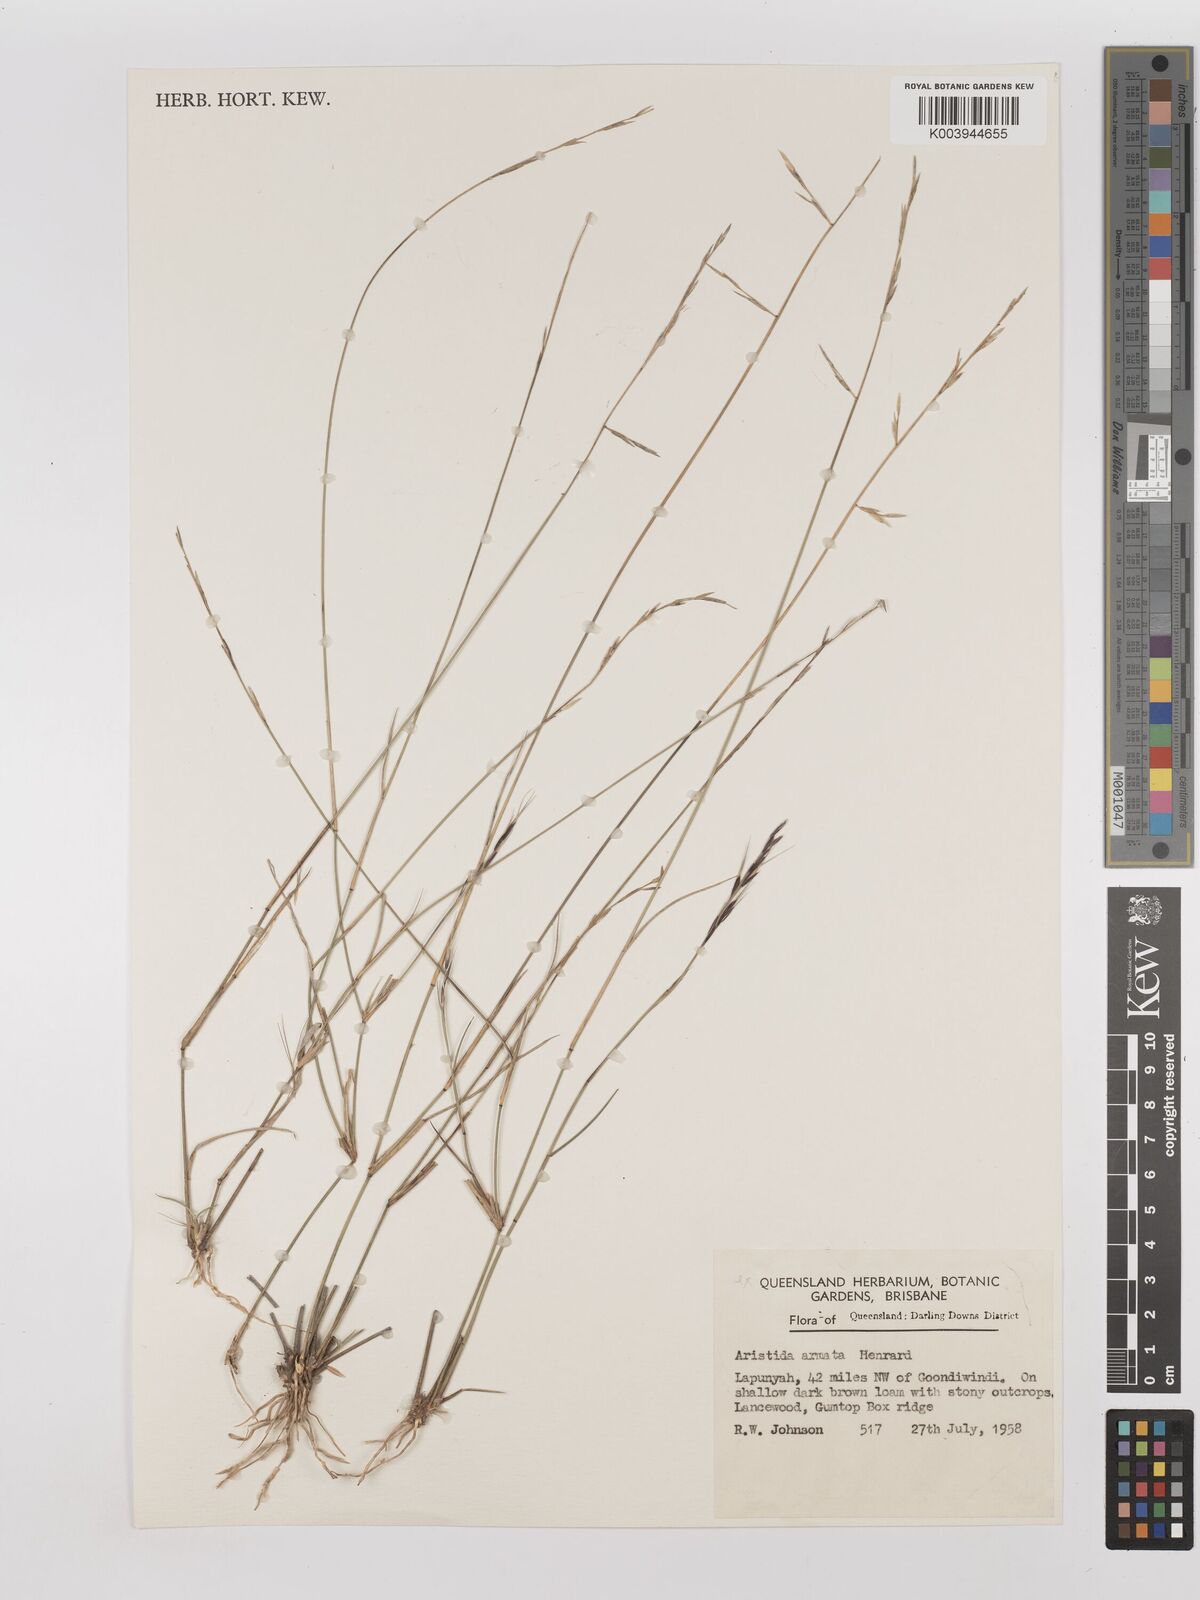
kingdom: Plantae
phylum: Tracheophyta
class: Liliopsida
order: Poales
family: Poaceae
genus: Aristida
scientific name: Aristida calycina
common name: Dark wire grass
